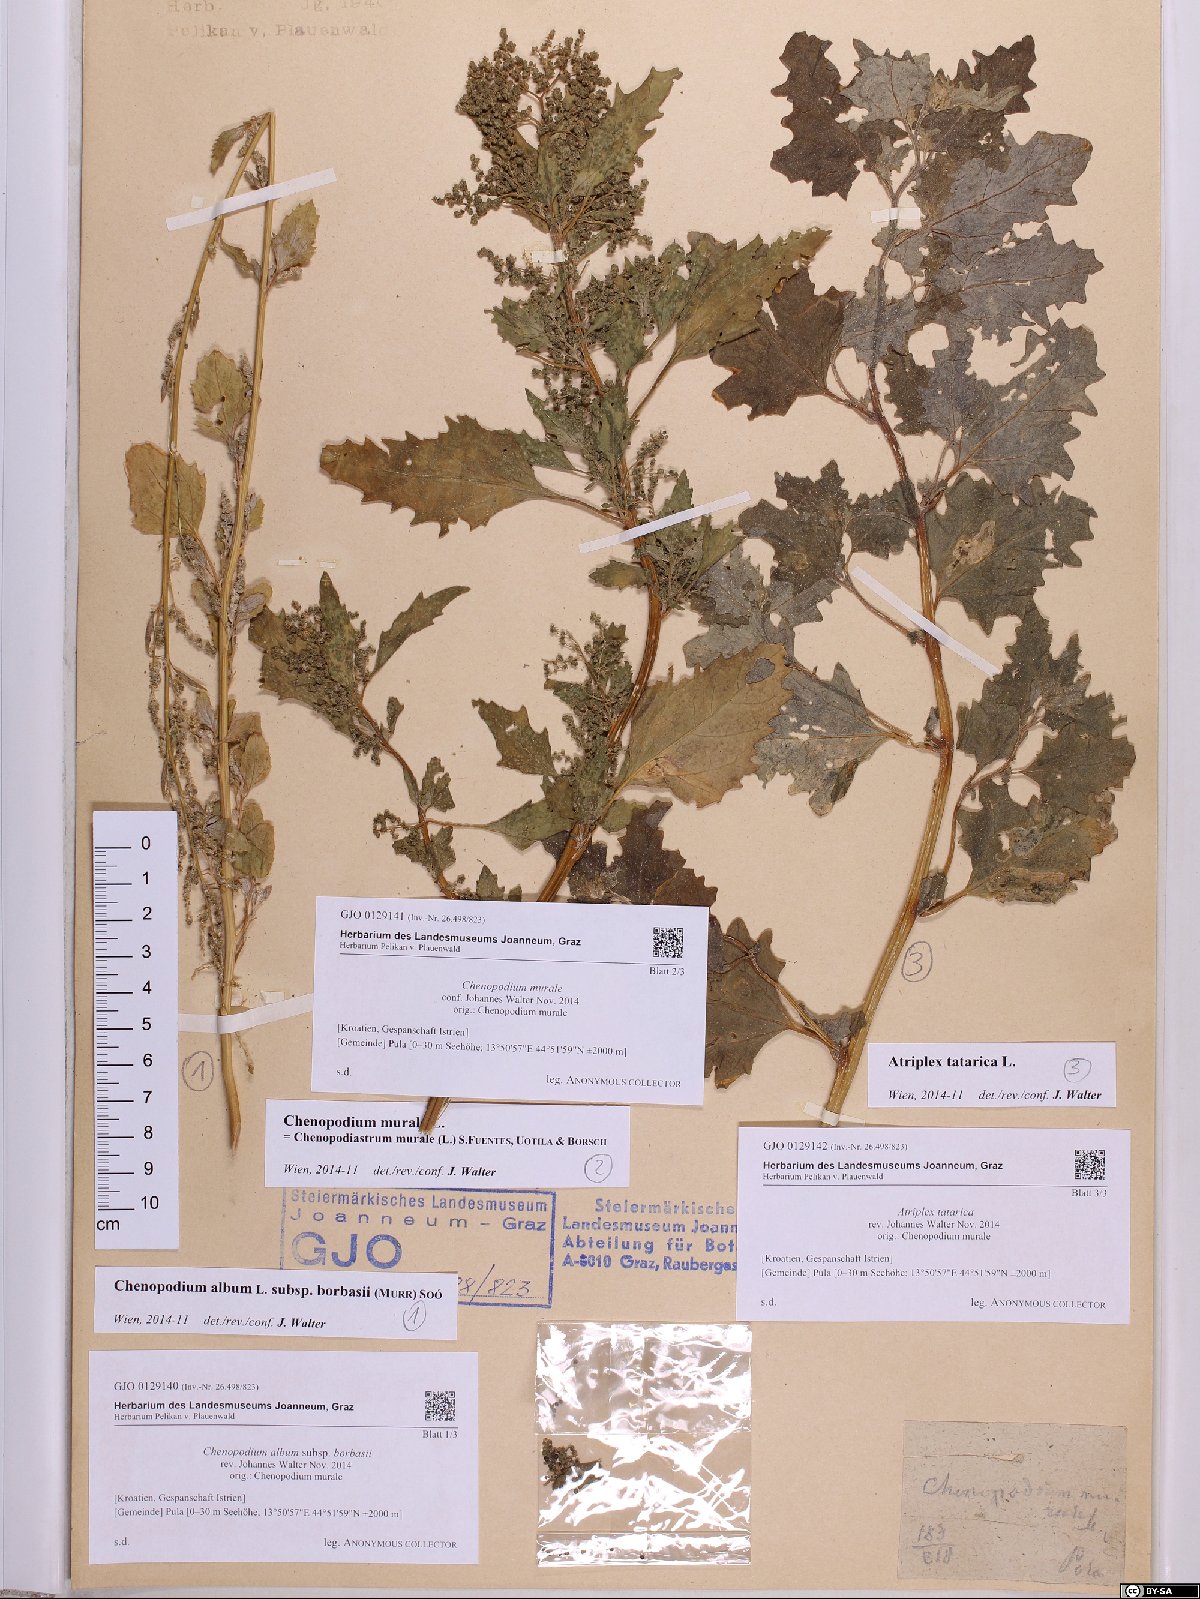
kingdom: Plantae
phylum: Tracheophyta
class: Magnoliopsida
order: Caryophyllales
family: Amaranthaceae
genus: Atriplex
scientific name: Atriplex tatarica
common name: Tatarian orache
